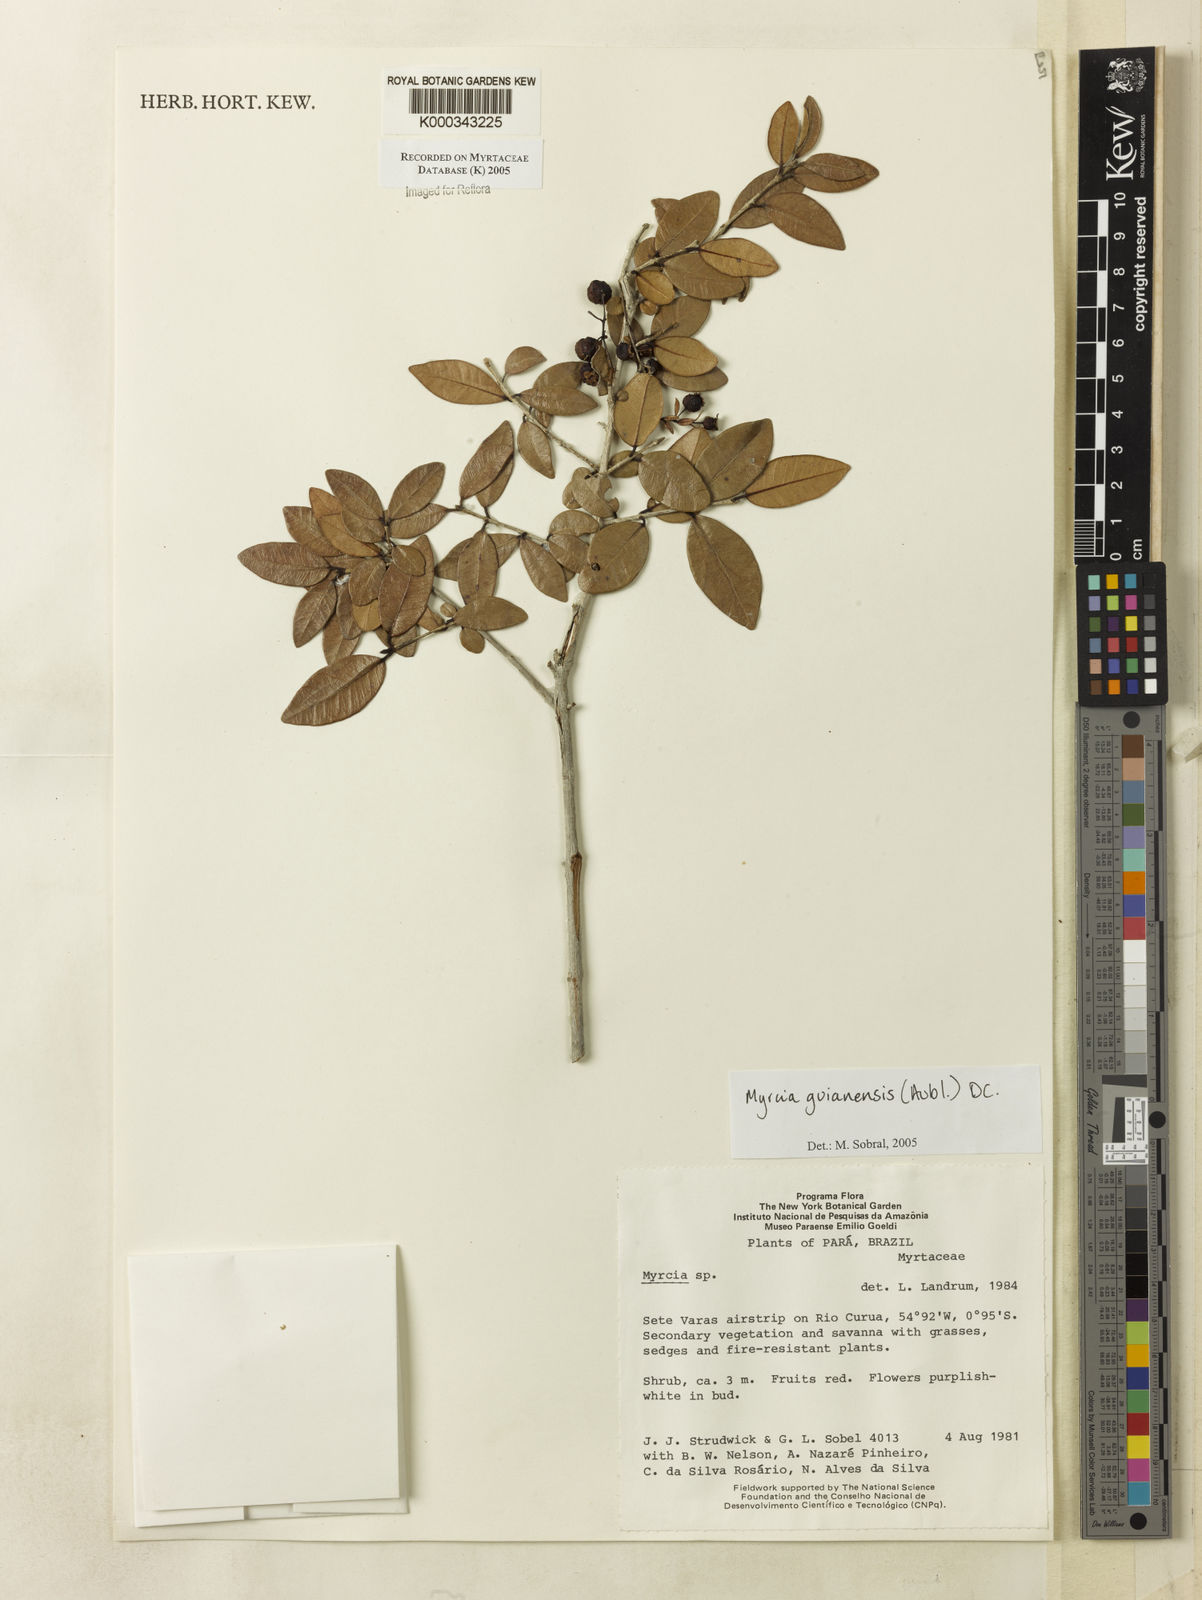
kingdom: Plantae
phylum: Tracheophyta
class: Magnoliopsida
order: Myrtales
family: Myrtaceae
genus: Myrcia
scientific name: Myrcia guianensis
